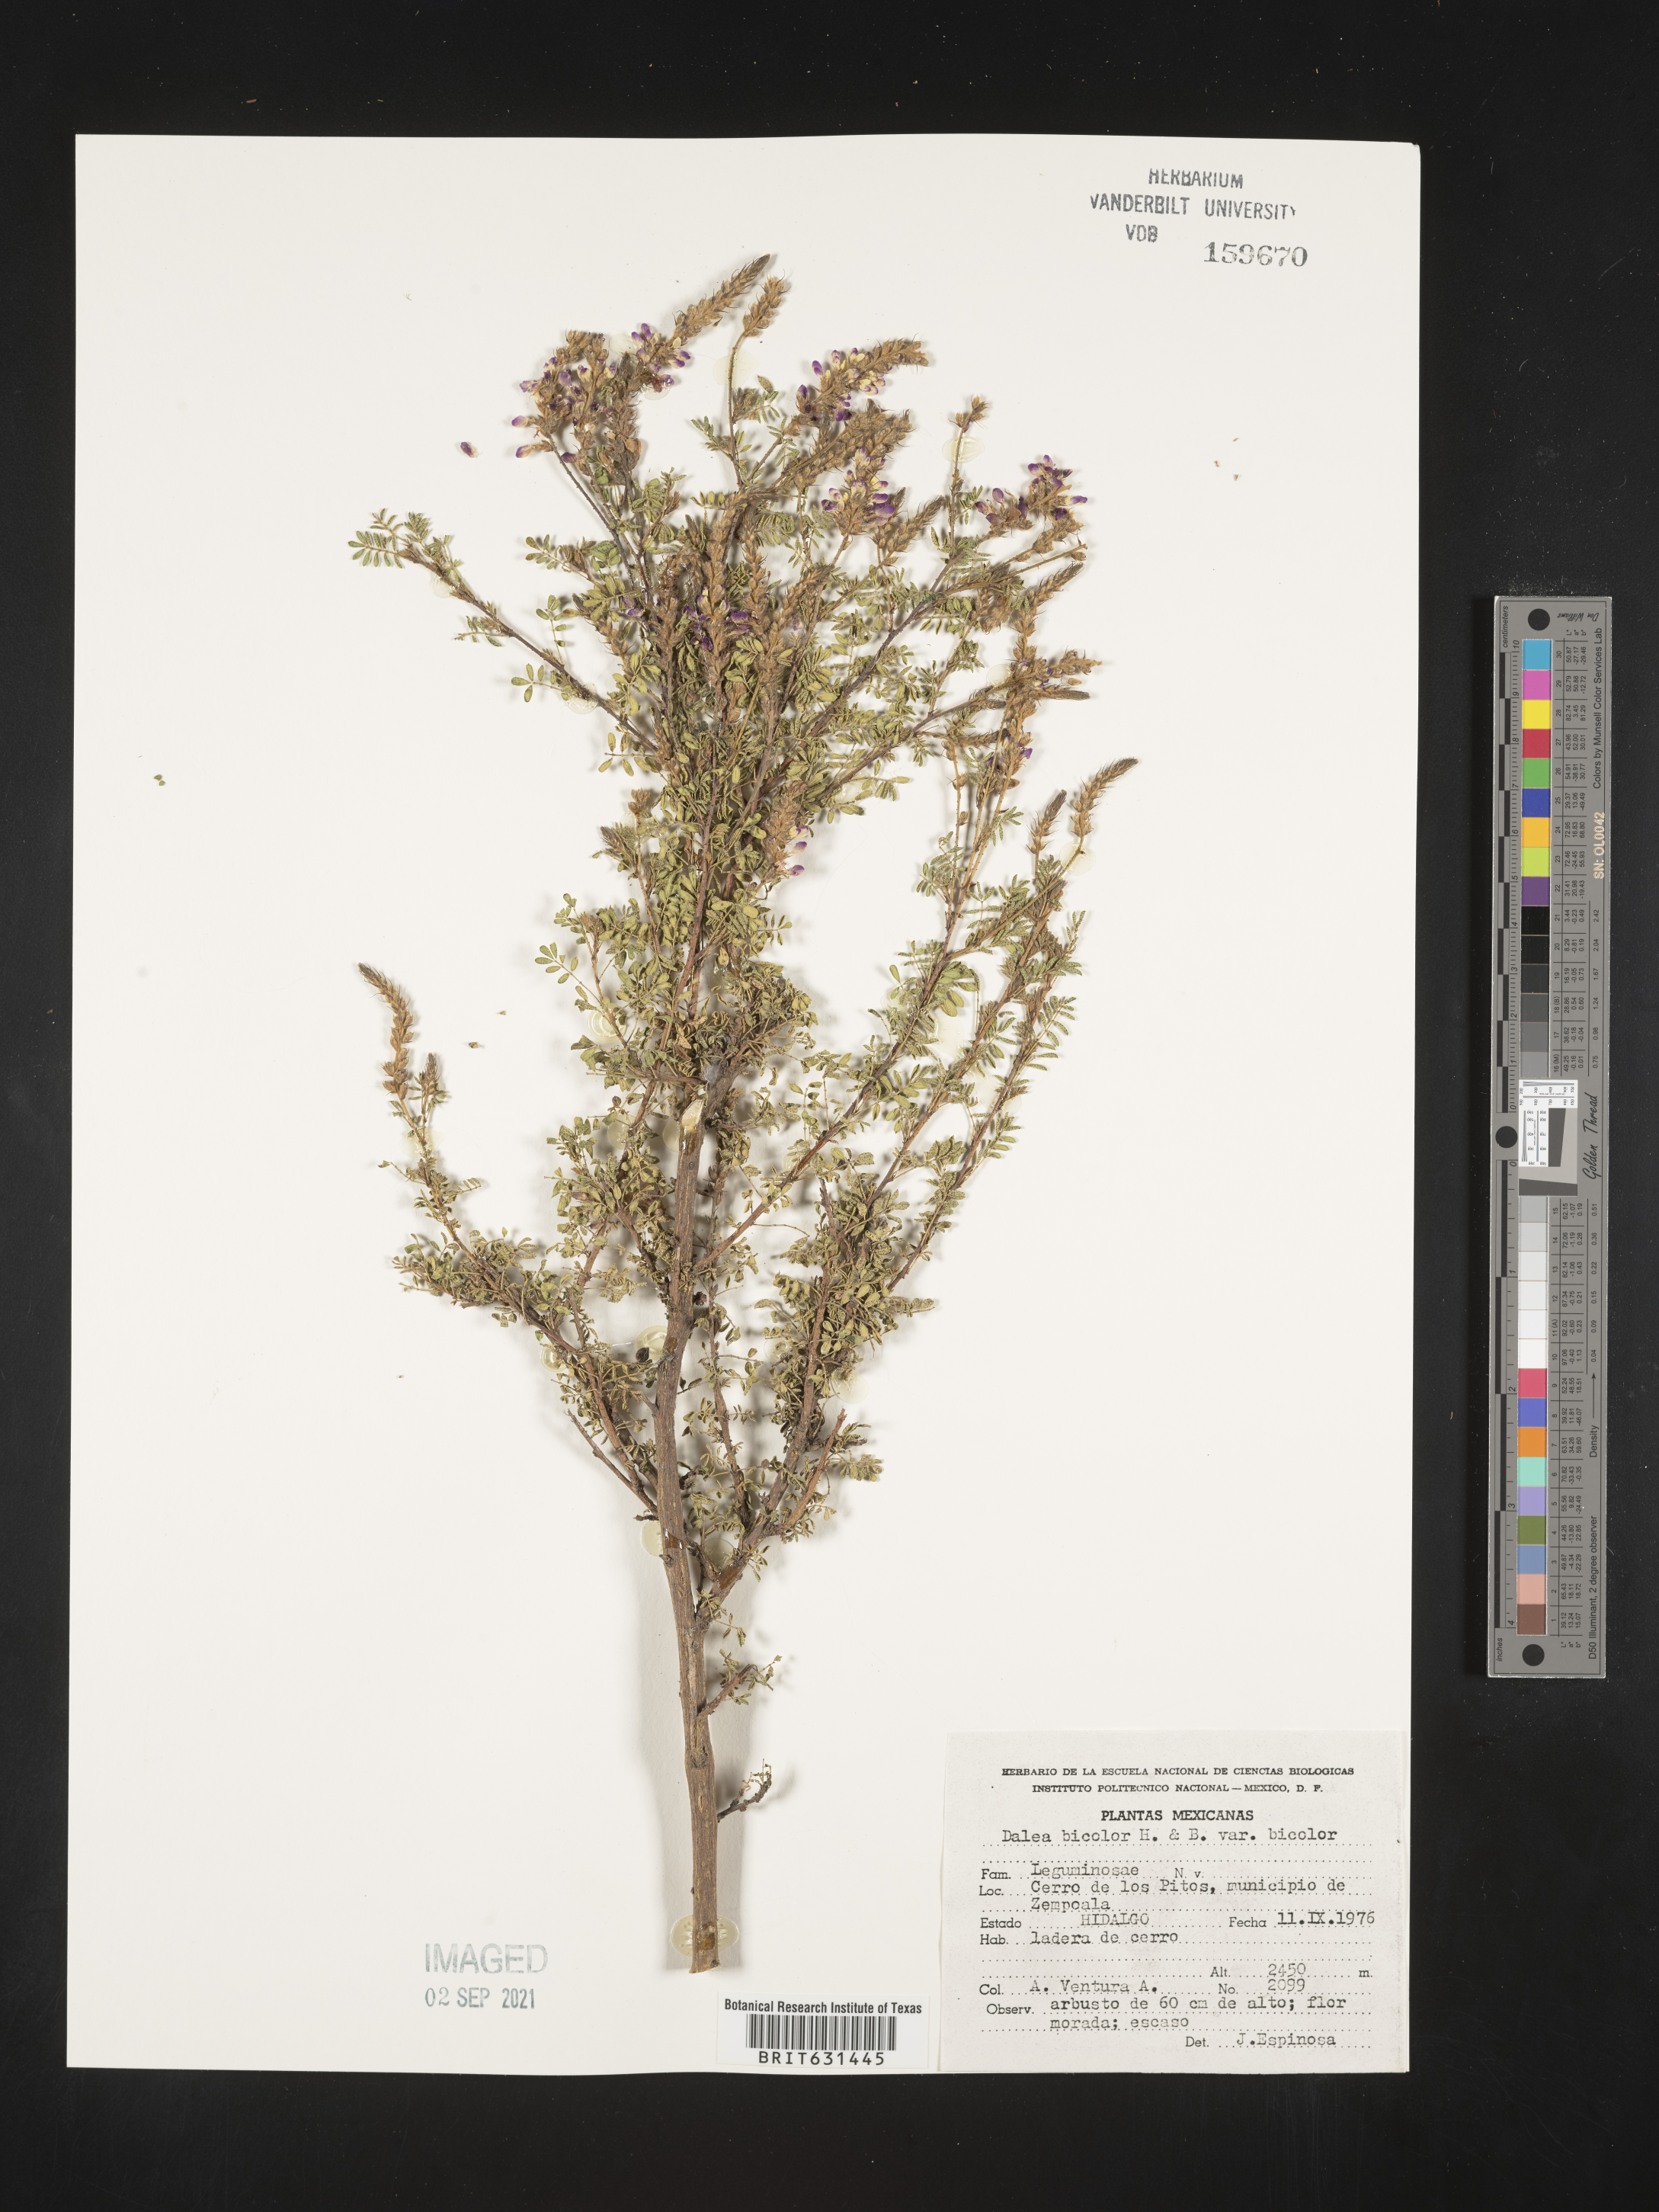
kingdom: Plantae
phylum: Tracheophyta
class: Magnoliopsida
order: Fabales
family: Fabaceae
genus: Dalea
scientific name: Dalea bicolor
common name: Silver prairie-clover
